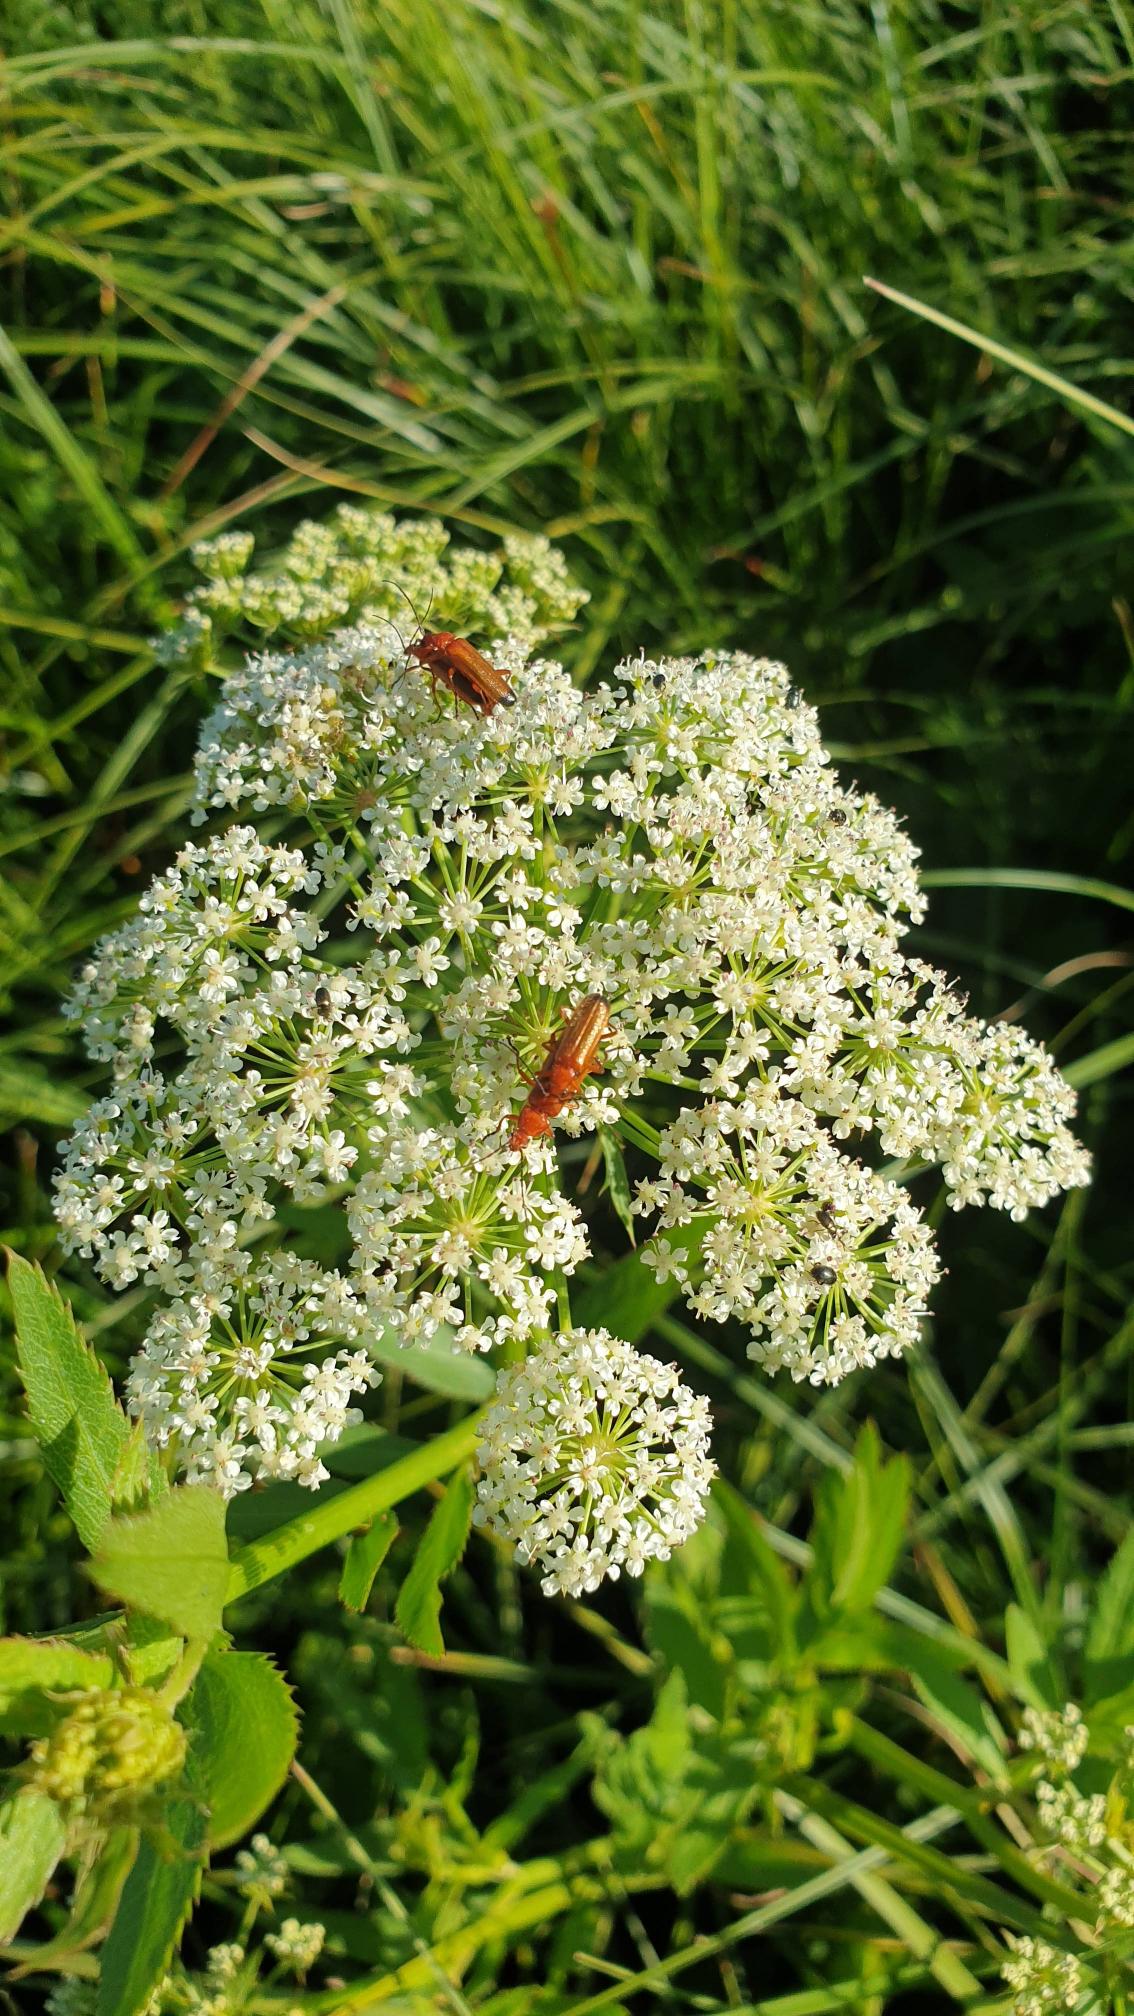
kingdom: Animalia
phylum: Arthropoda
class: Insecta
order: Coleoptera
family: Cantharidae
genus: Rhagonycha
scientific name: Rhagonycha fulva
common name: Præstebille
